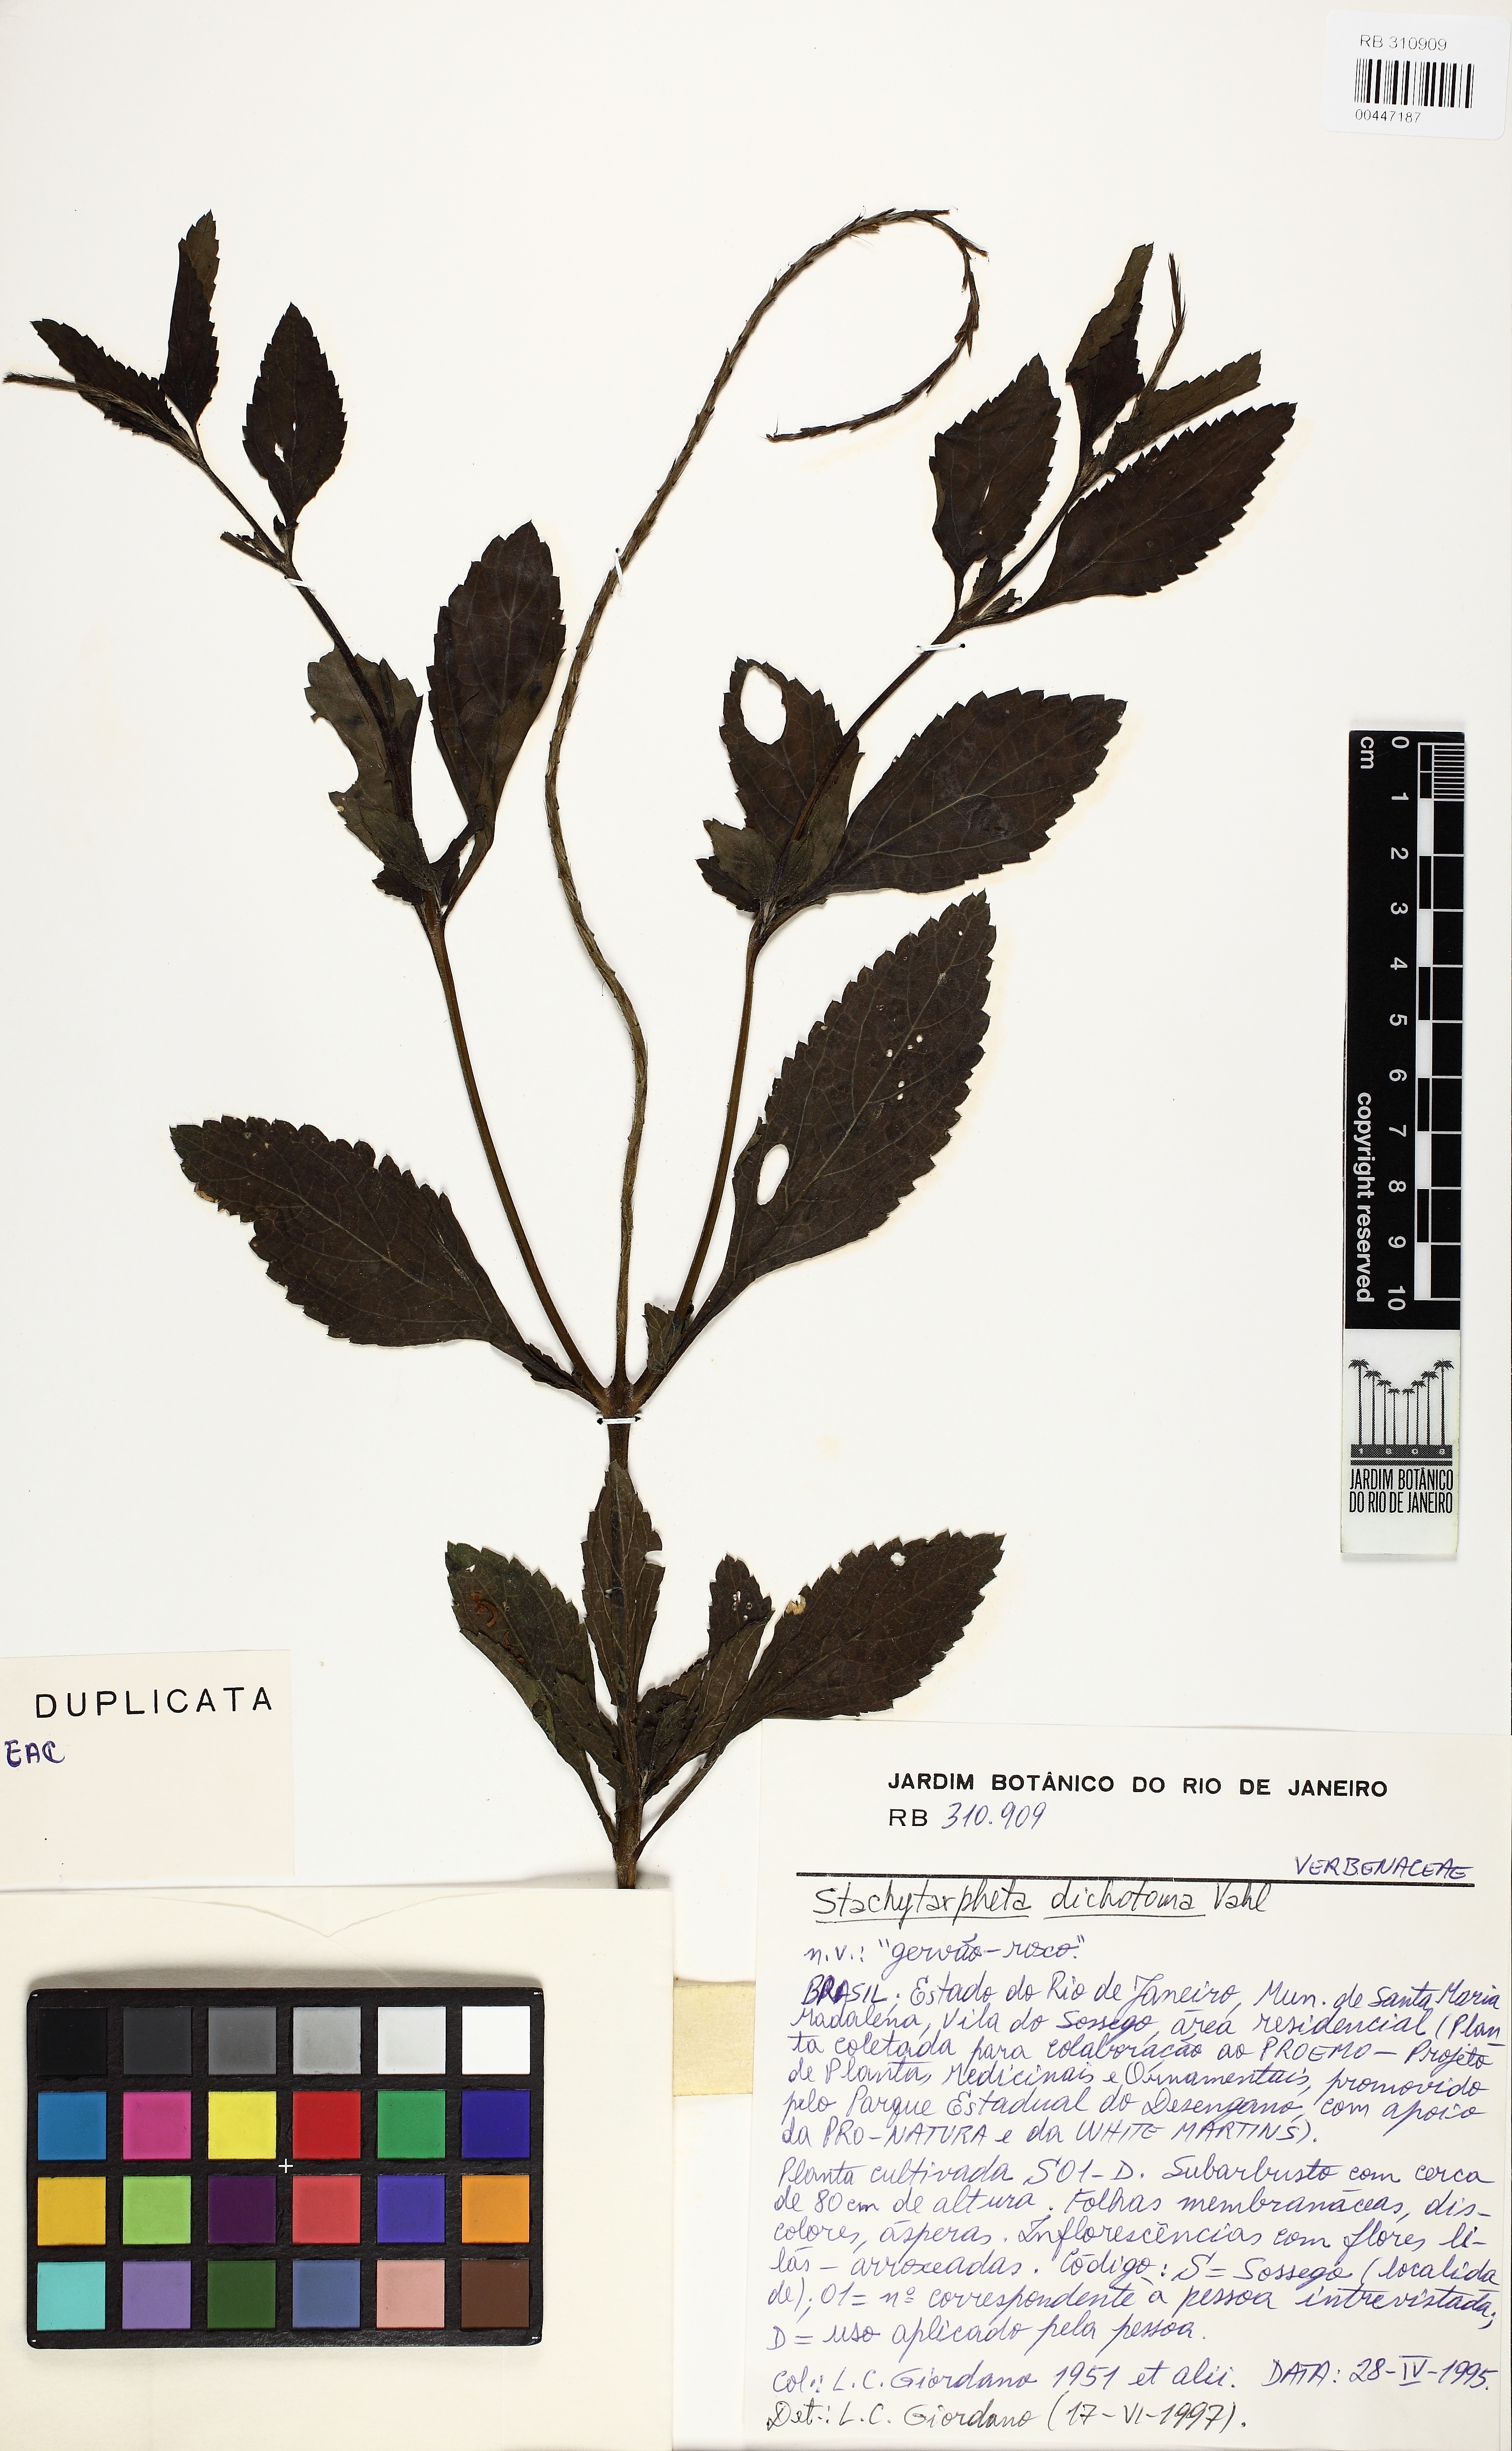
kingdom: Plantae
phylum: Tracheophyta
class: Magnoliopsida
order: Lamiales
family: Verbenaceae
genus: Stachytarpheta
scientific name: Stachytarpheta cayennensis
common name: Cayenne porterweed
